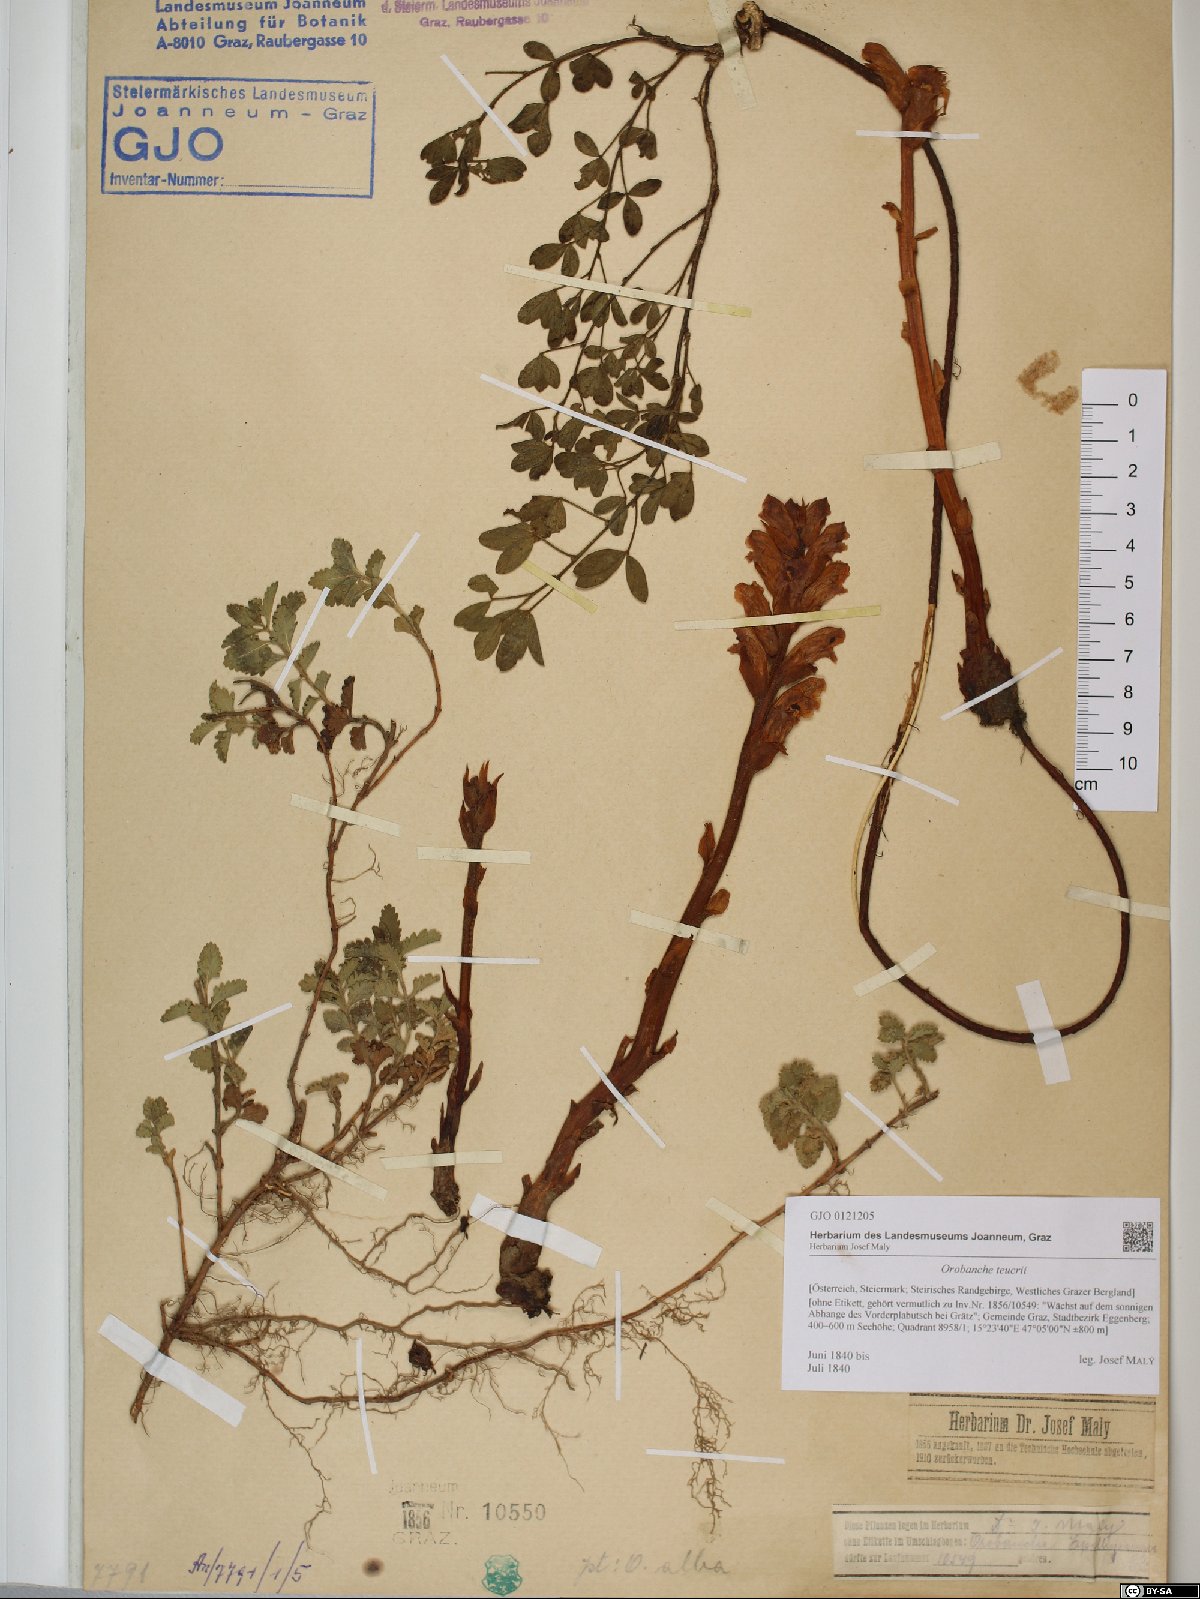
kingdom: Plantae
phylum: Tracheophyta
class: Magnoliopsida
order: Lamiales
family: Orobanchaceae
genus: Orobanche
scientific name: Orobanche teucrii
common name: Germander broomrape
